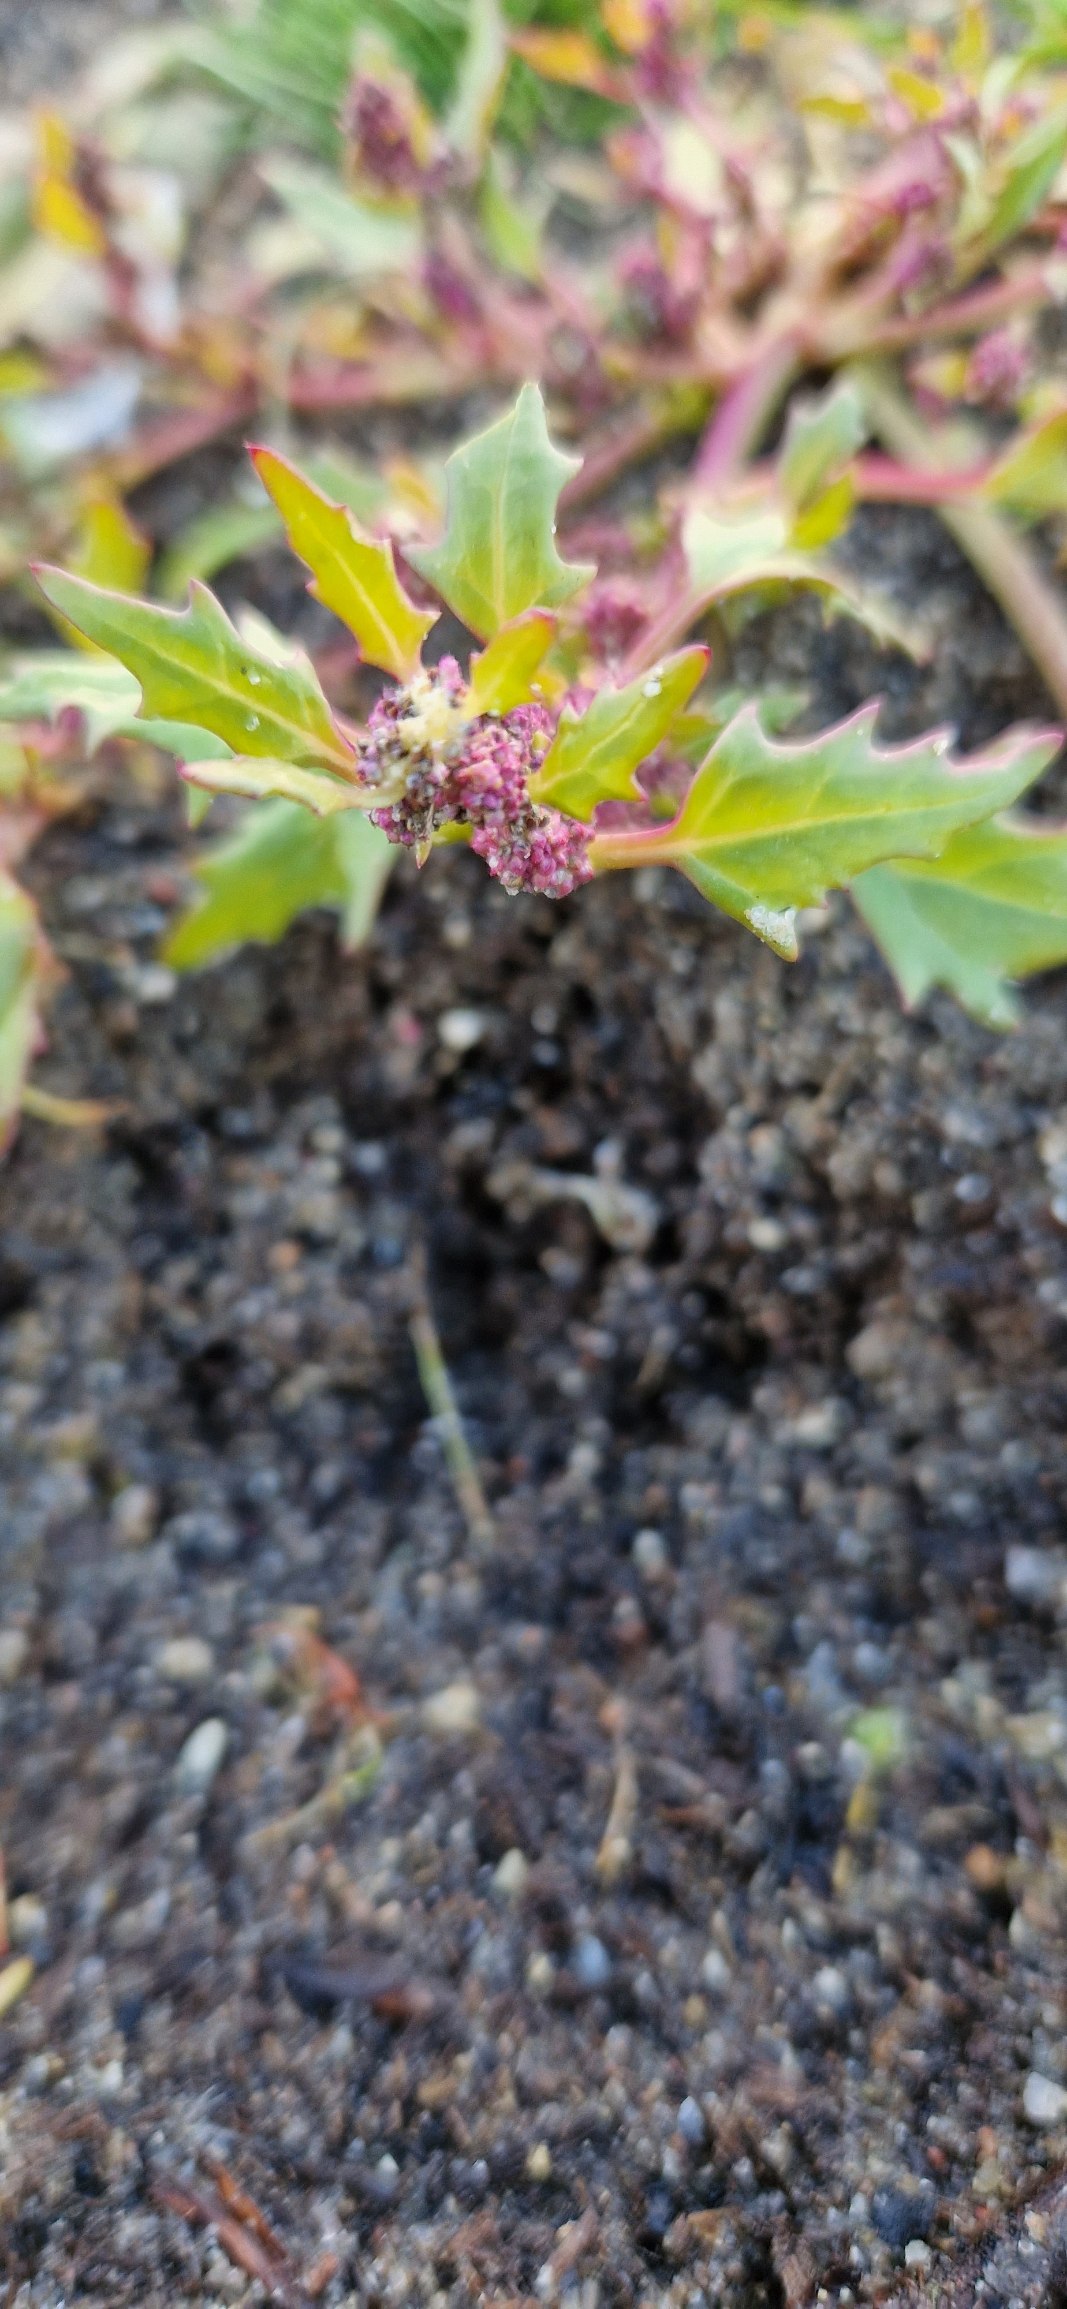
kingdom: Plantae
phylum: Tracheophyta
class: Magnoliopsida
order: Caryophyllales
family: Amaranthaceae
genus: Oxybasis
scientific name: Oxybasis rubra
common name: Rød gåsefod
